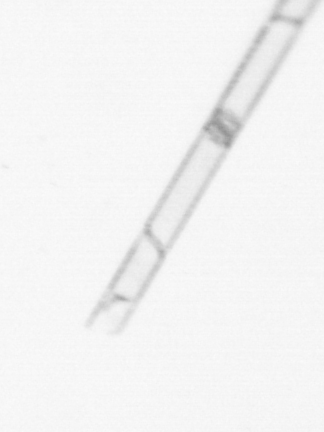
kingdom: Chromista
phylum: Ochrophyta
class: Bacillariophyceae
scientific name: Bacillariophyceae
